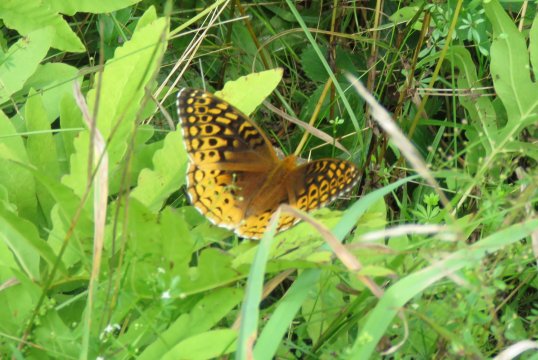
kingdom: Animalia
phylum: Arthropoda
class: Insecta
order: Lepidoptera
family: Nymphalidae
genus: Speyeria
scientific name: Speyeria cybele
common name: Great Spangled Fritillary
